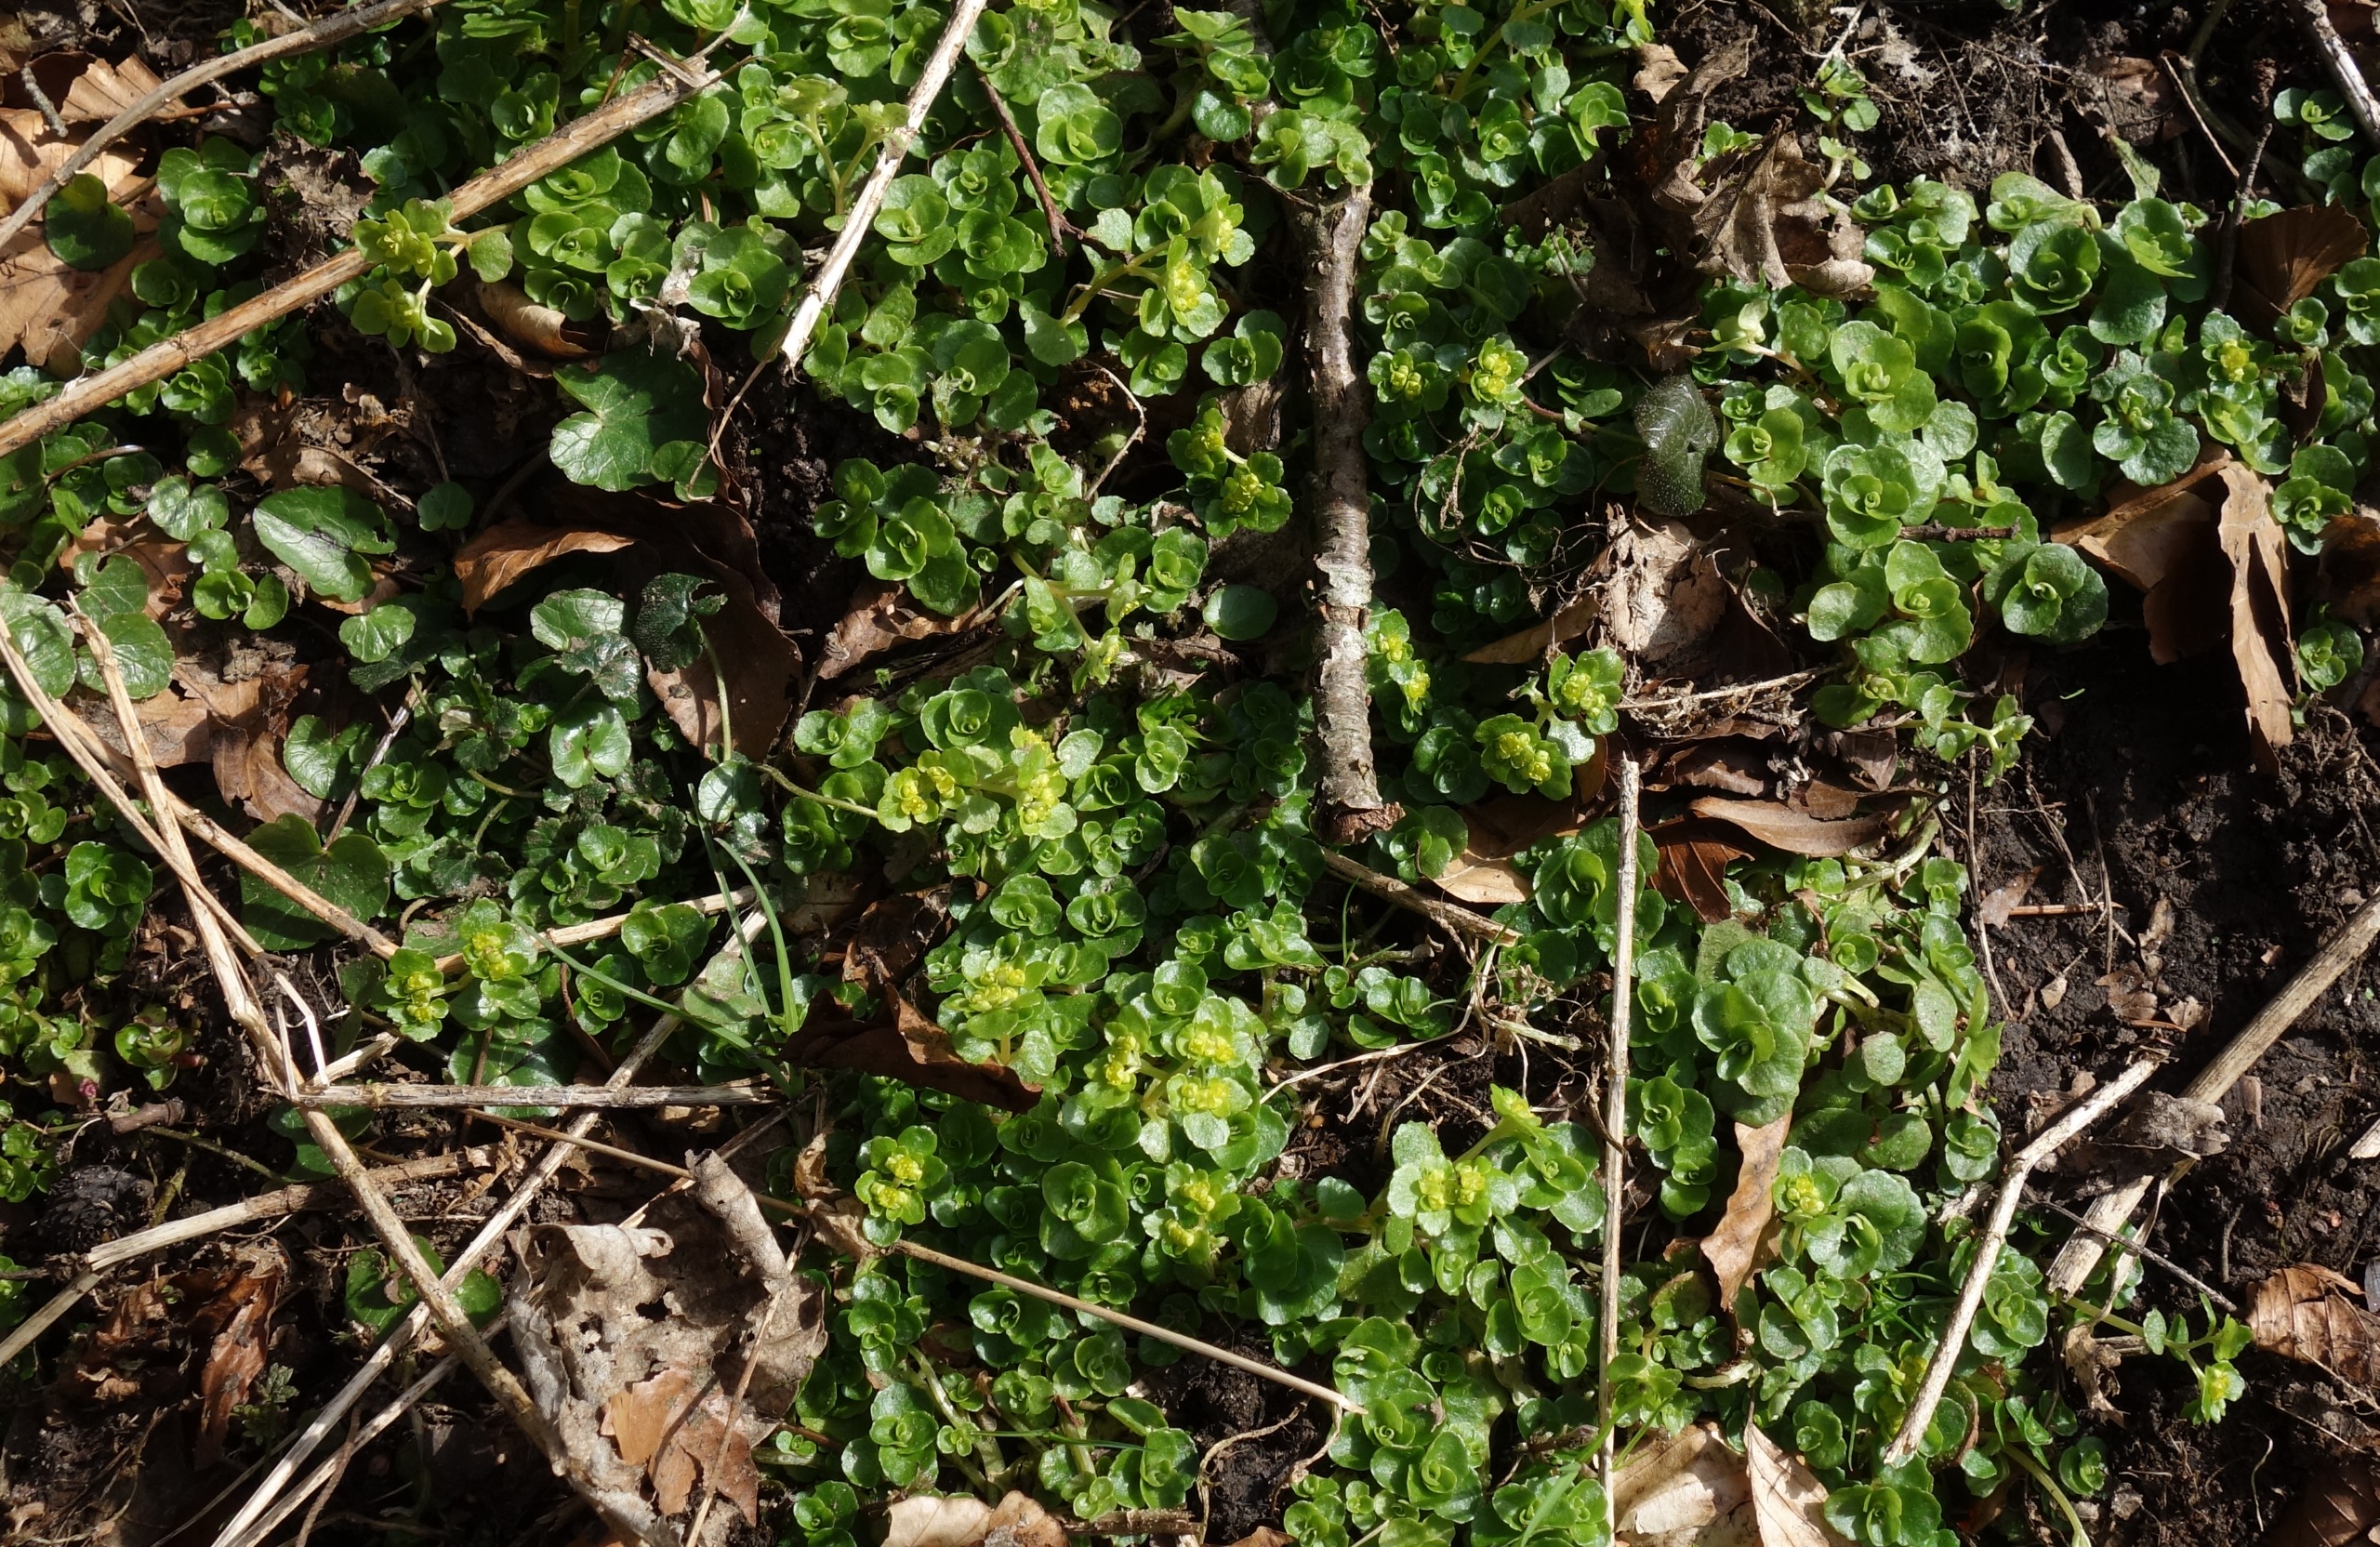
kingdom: Plantae
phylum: Tracheophyta
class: Magnoliopsida
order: Saxifragales
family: Saxifragaceae
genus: Chrysosplenium
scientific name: Chrysosplenium oppositifolium
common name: Småbladet milturt
